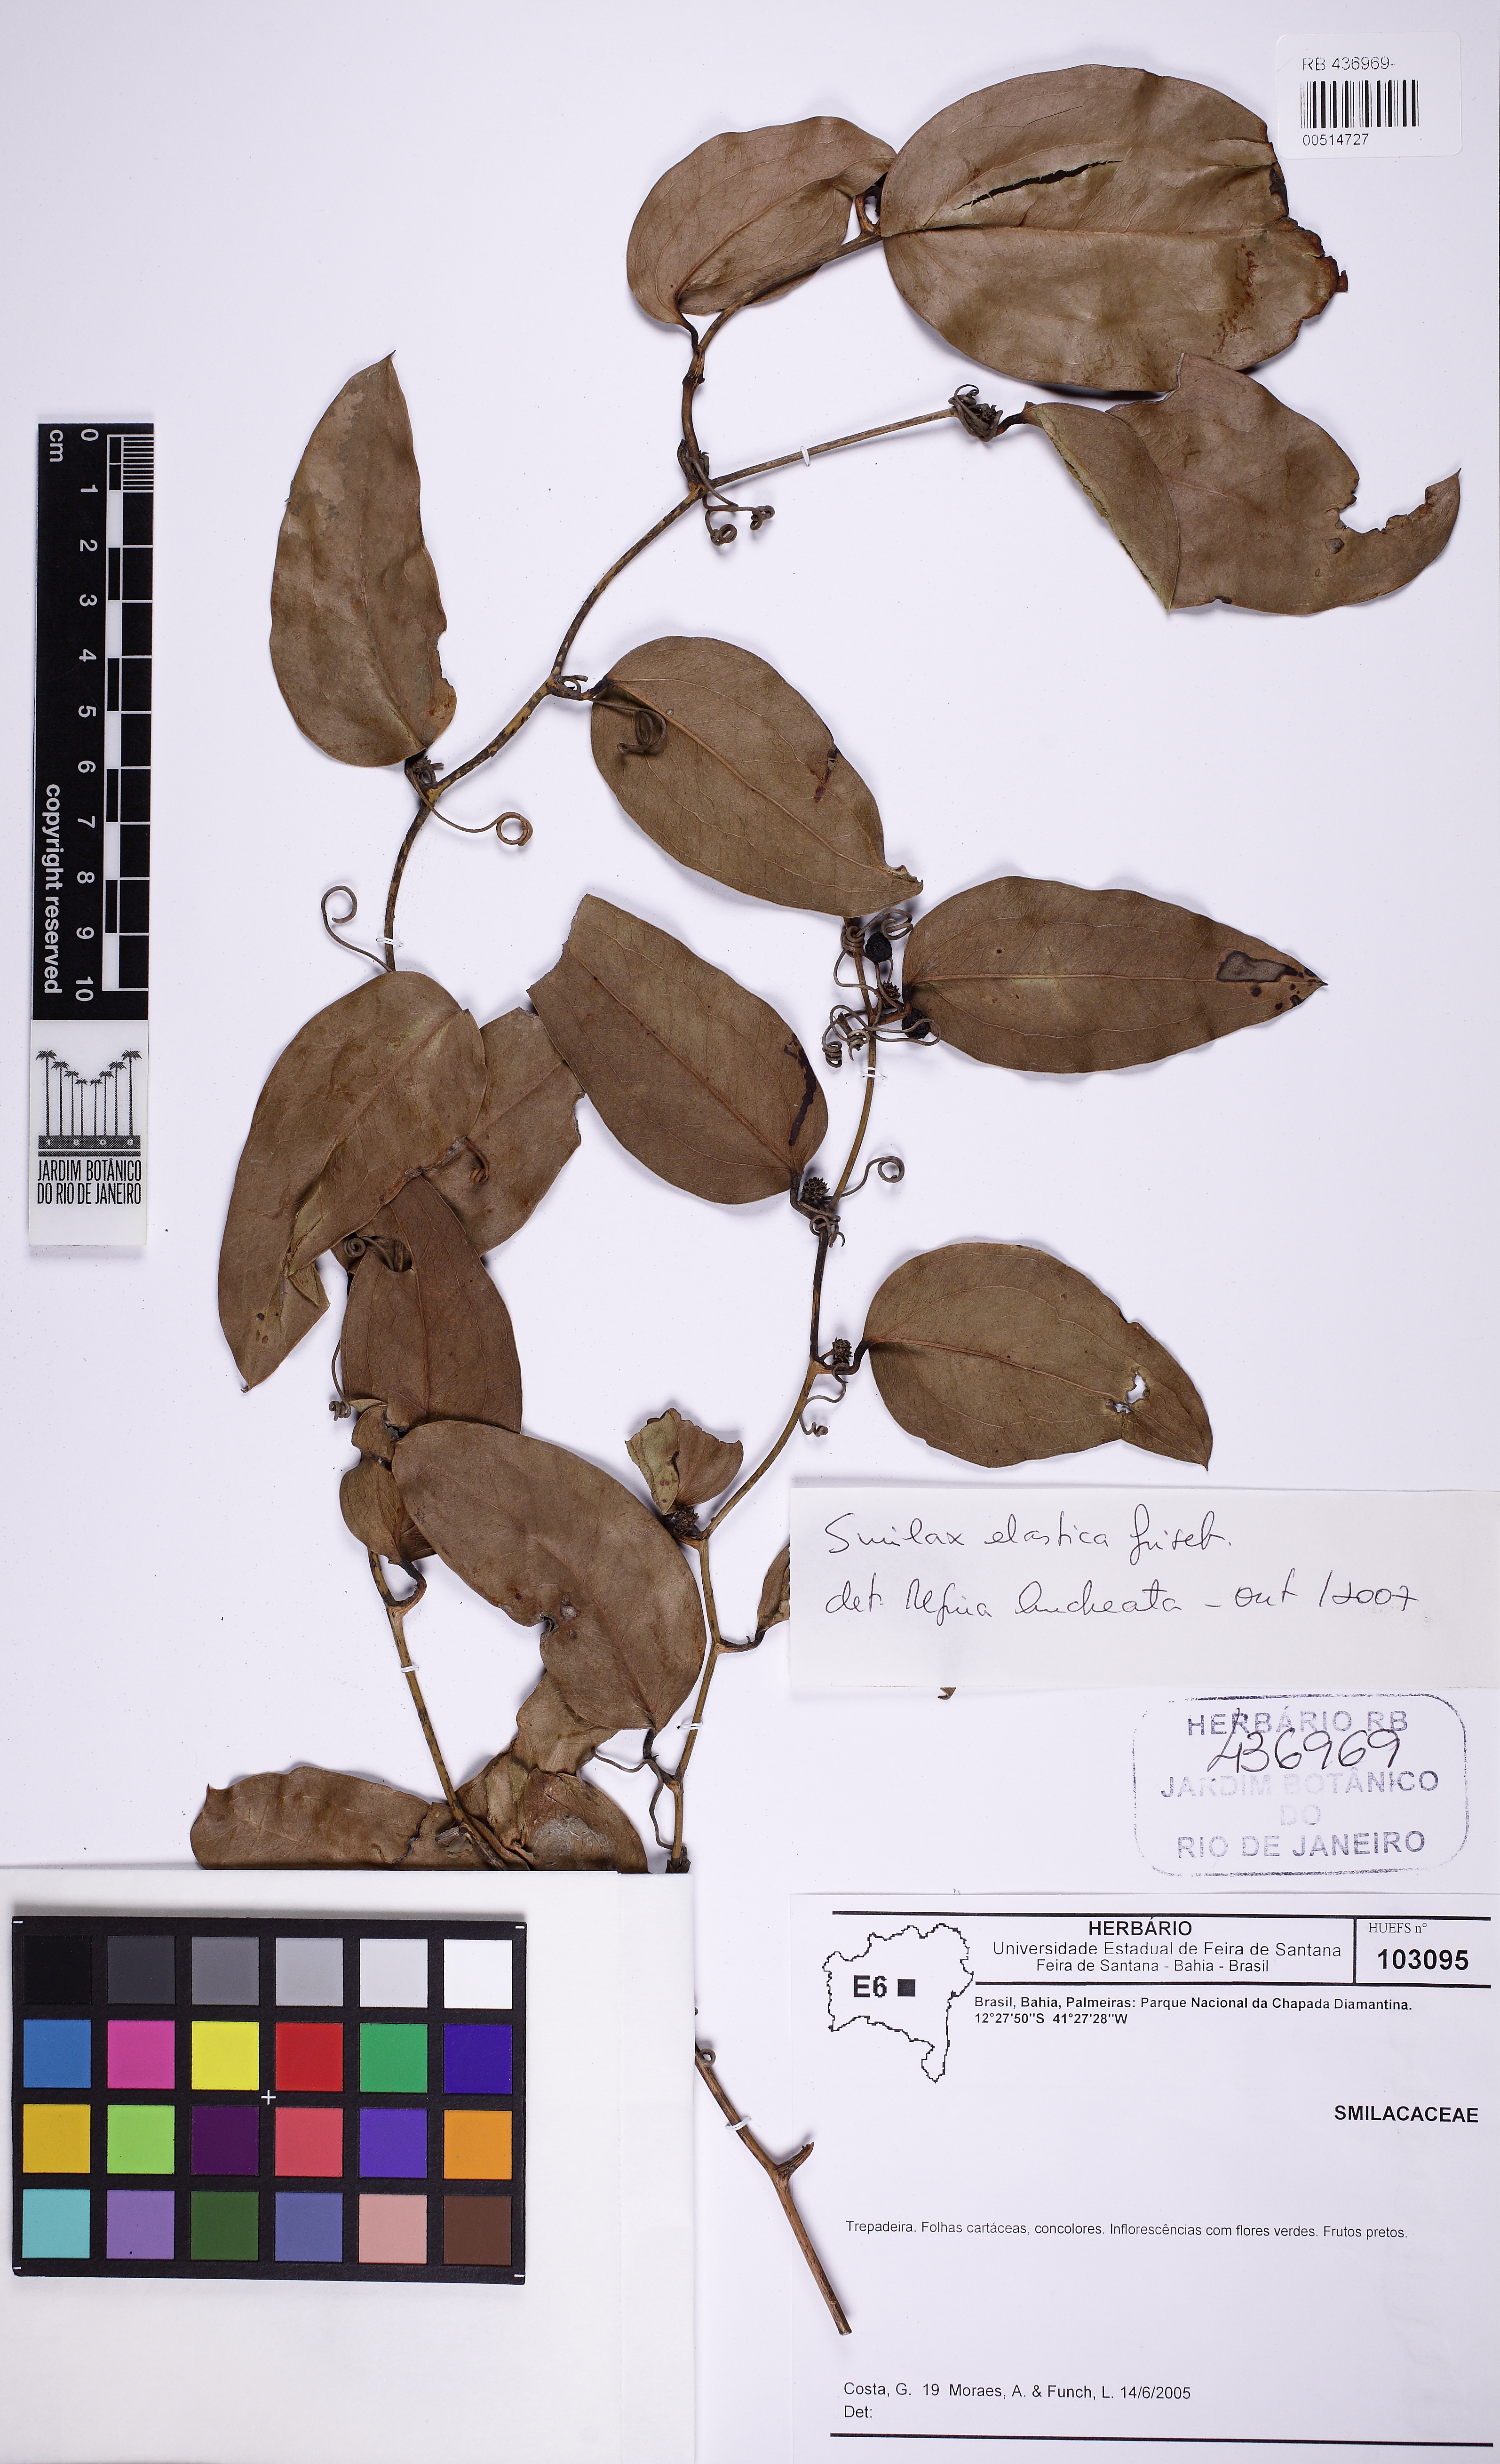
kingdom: Plantae
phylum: Tracheophyta
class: Liliopsida
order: Liliales
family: Smilacaceae
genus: Smilax
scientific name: Smilax elastica
